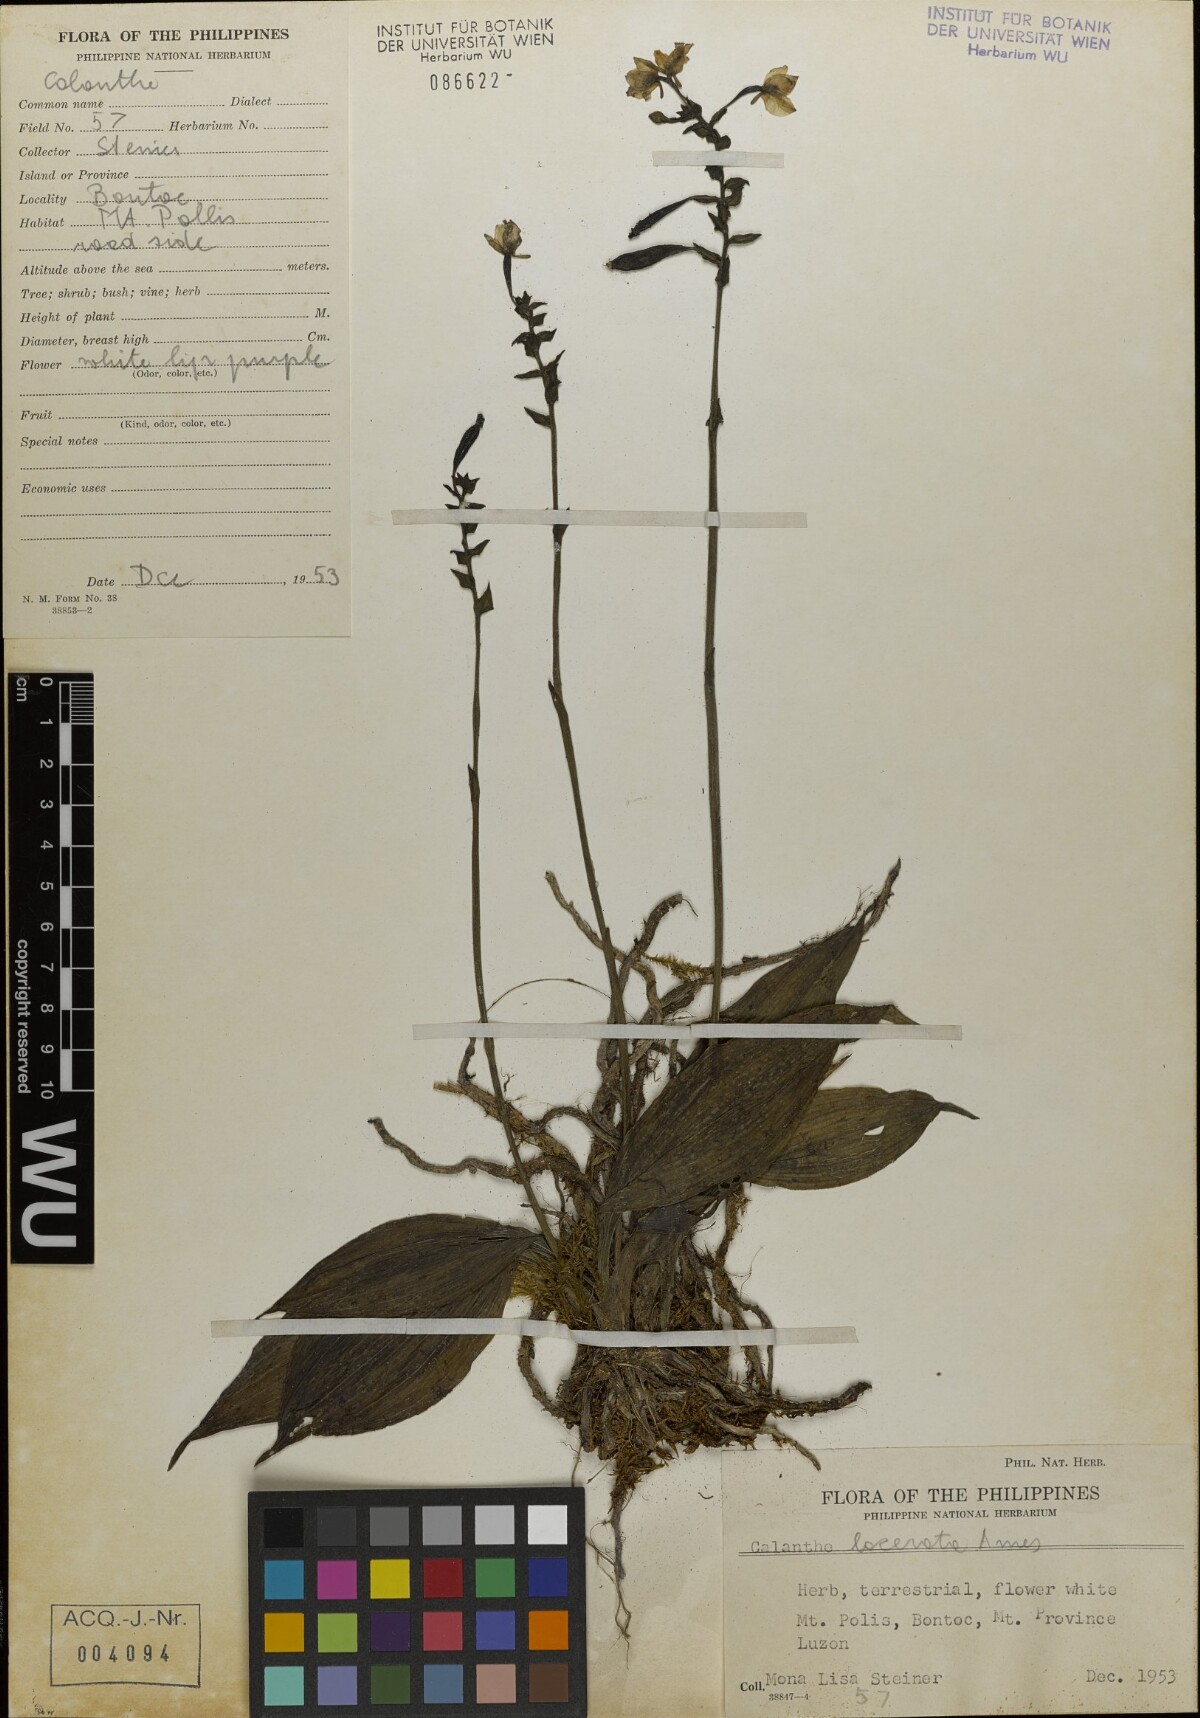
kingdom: Plantae
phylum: Tracheophyta
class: Liliopsida
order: Asparagales
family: Orchidaceae
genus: Calanthe
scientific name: Calanthe lacerata
